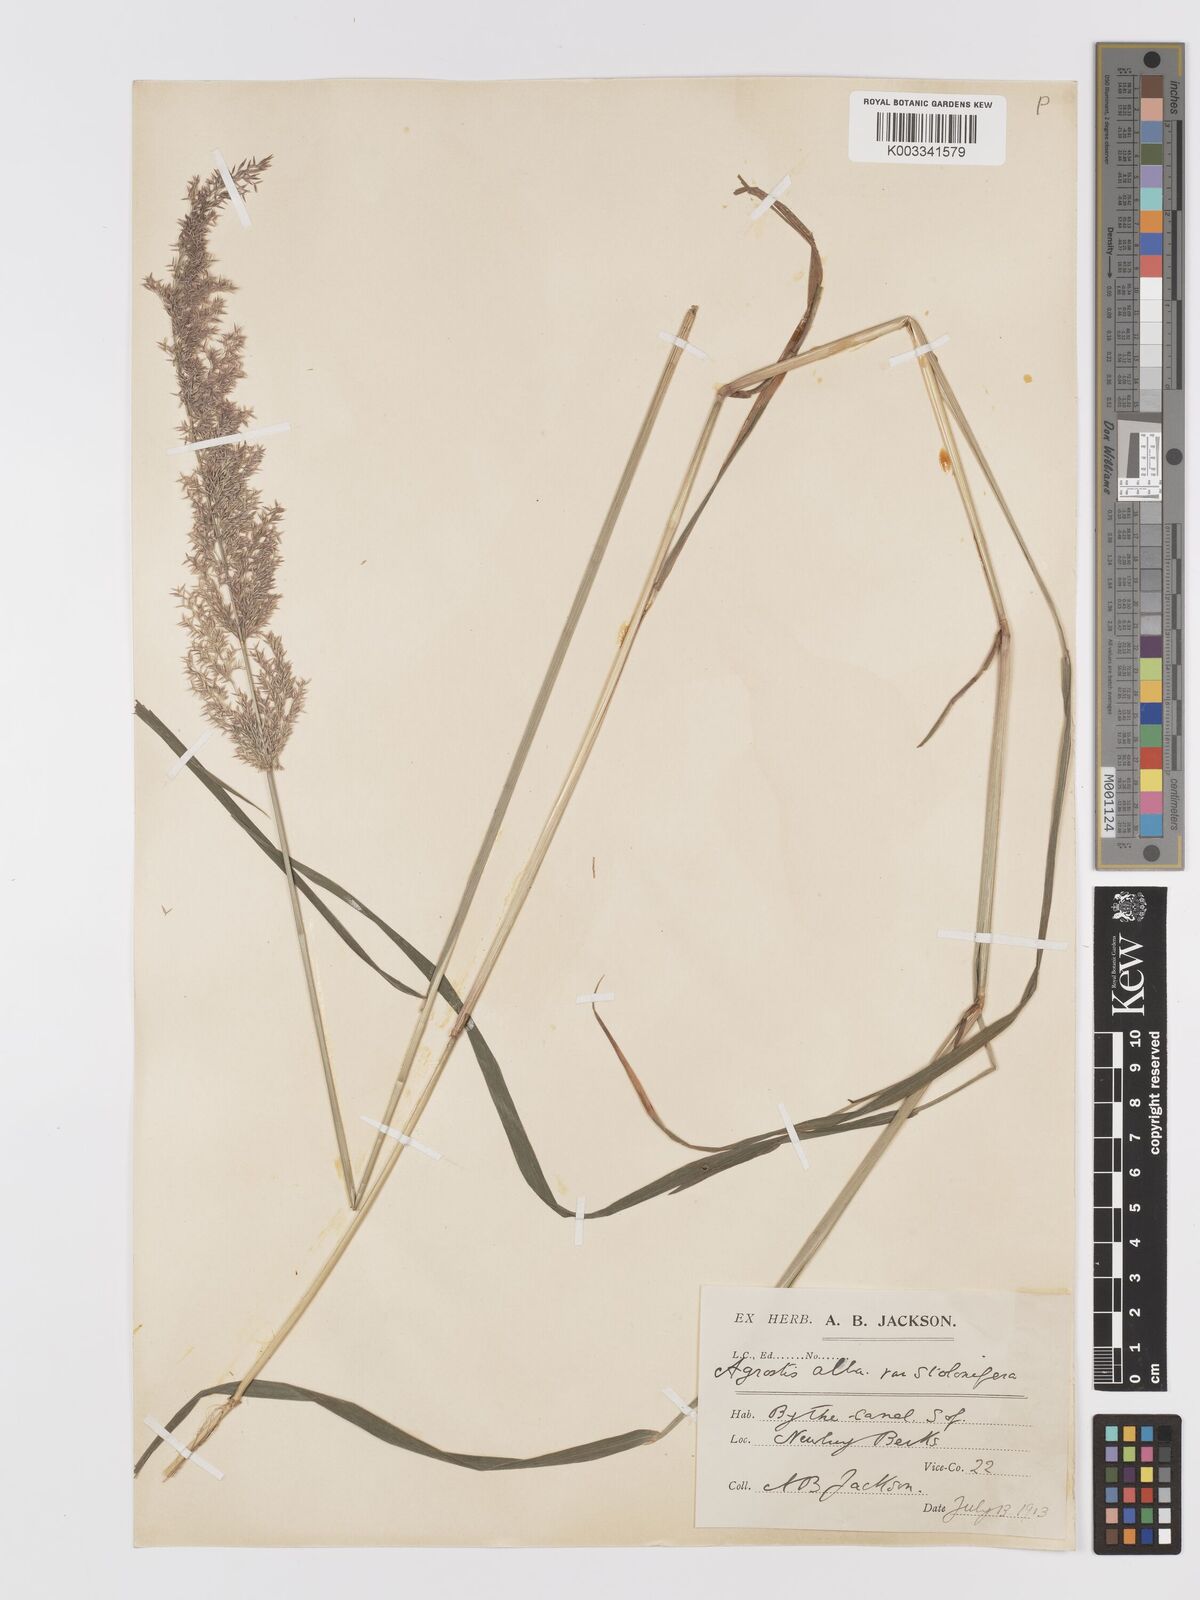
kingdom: Plantae
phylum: Tracheophyta
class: Liliopsida
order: Poales
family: Poaceae
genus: Agrostis
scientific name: Agrostis stolonifera
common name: Creeping bentgrass
